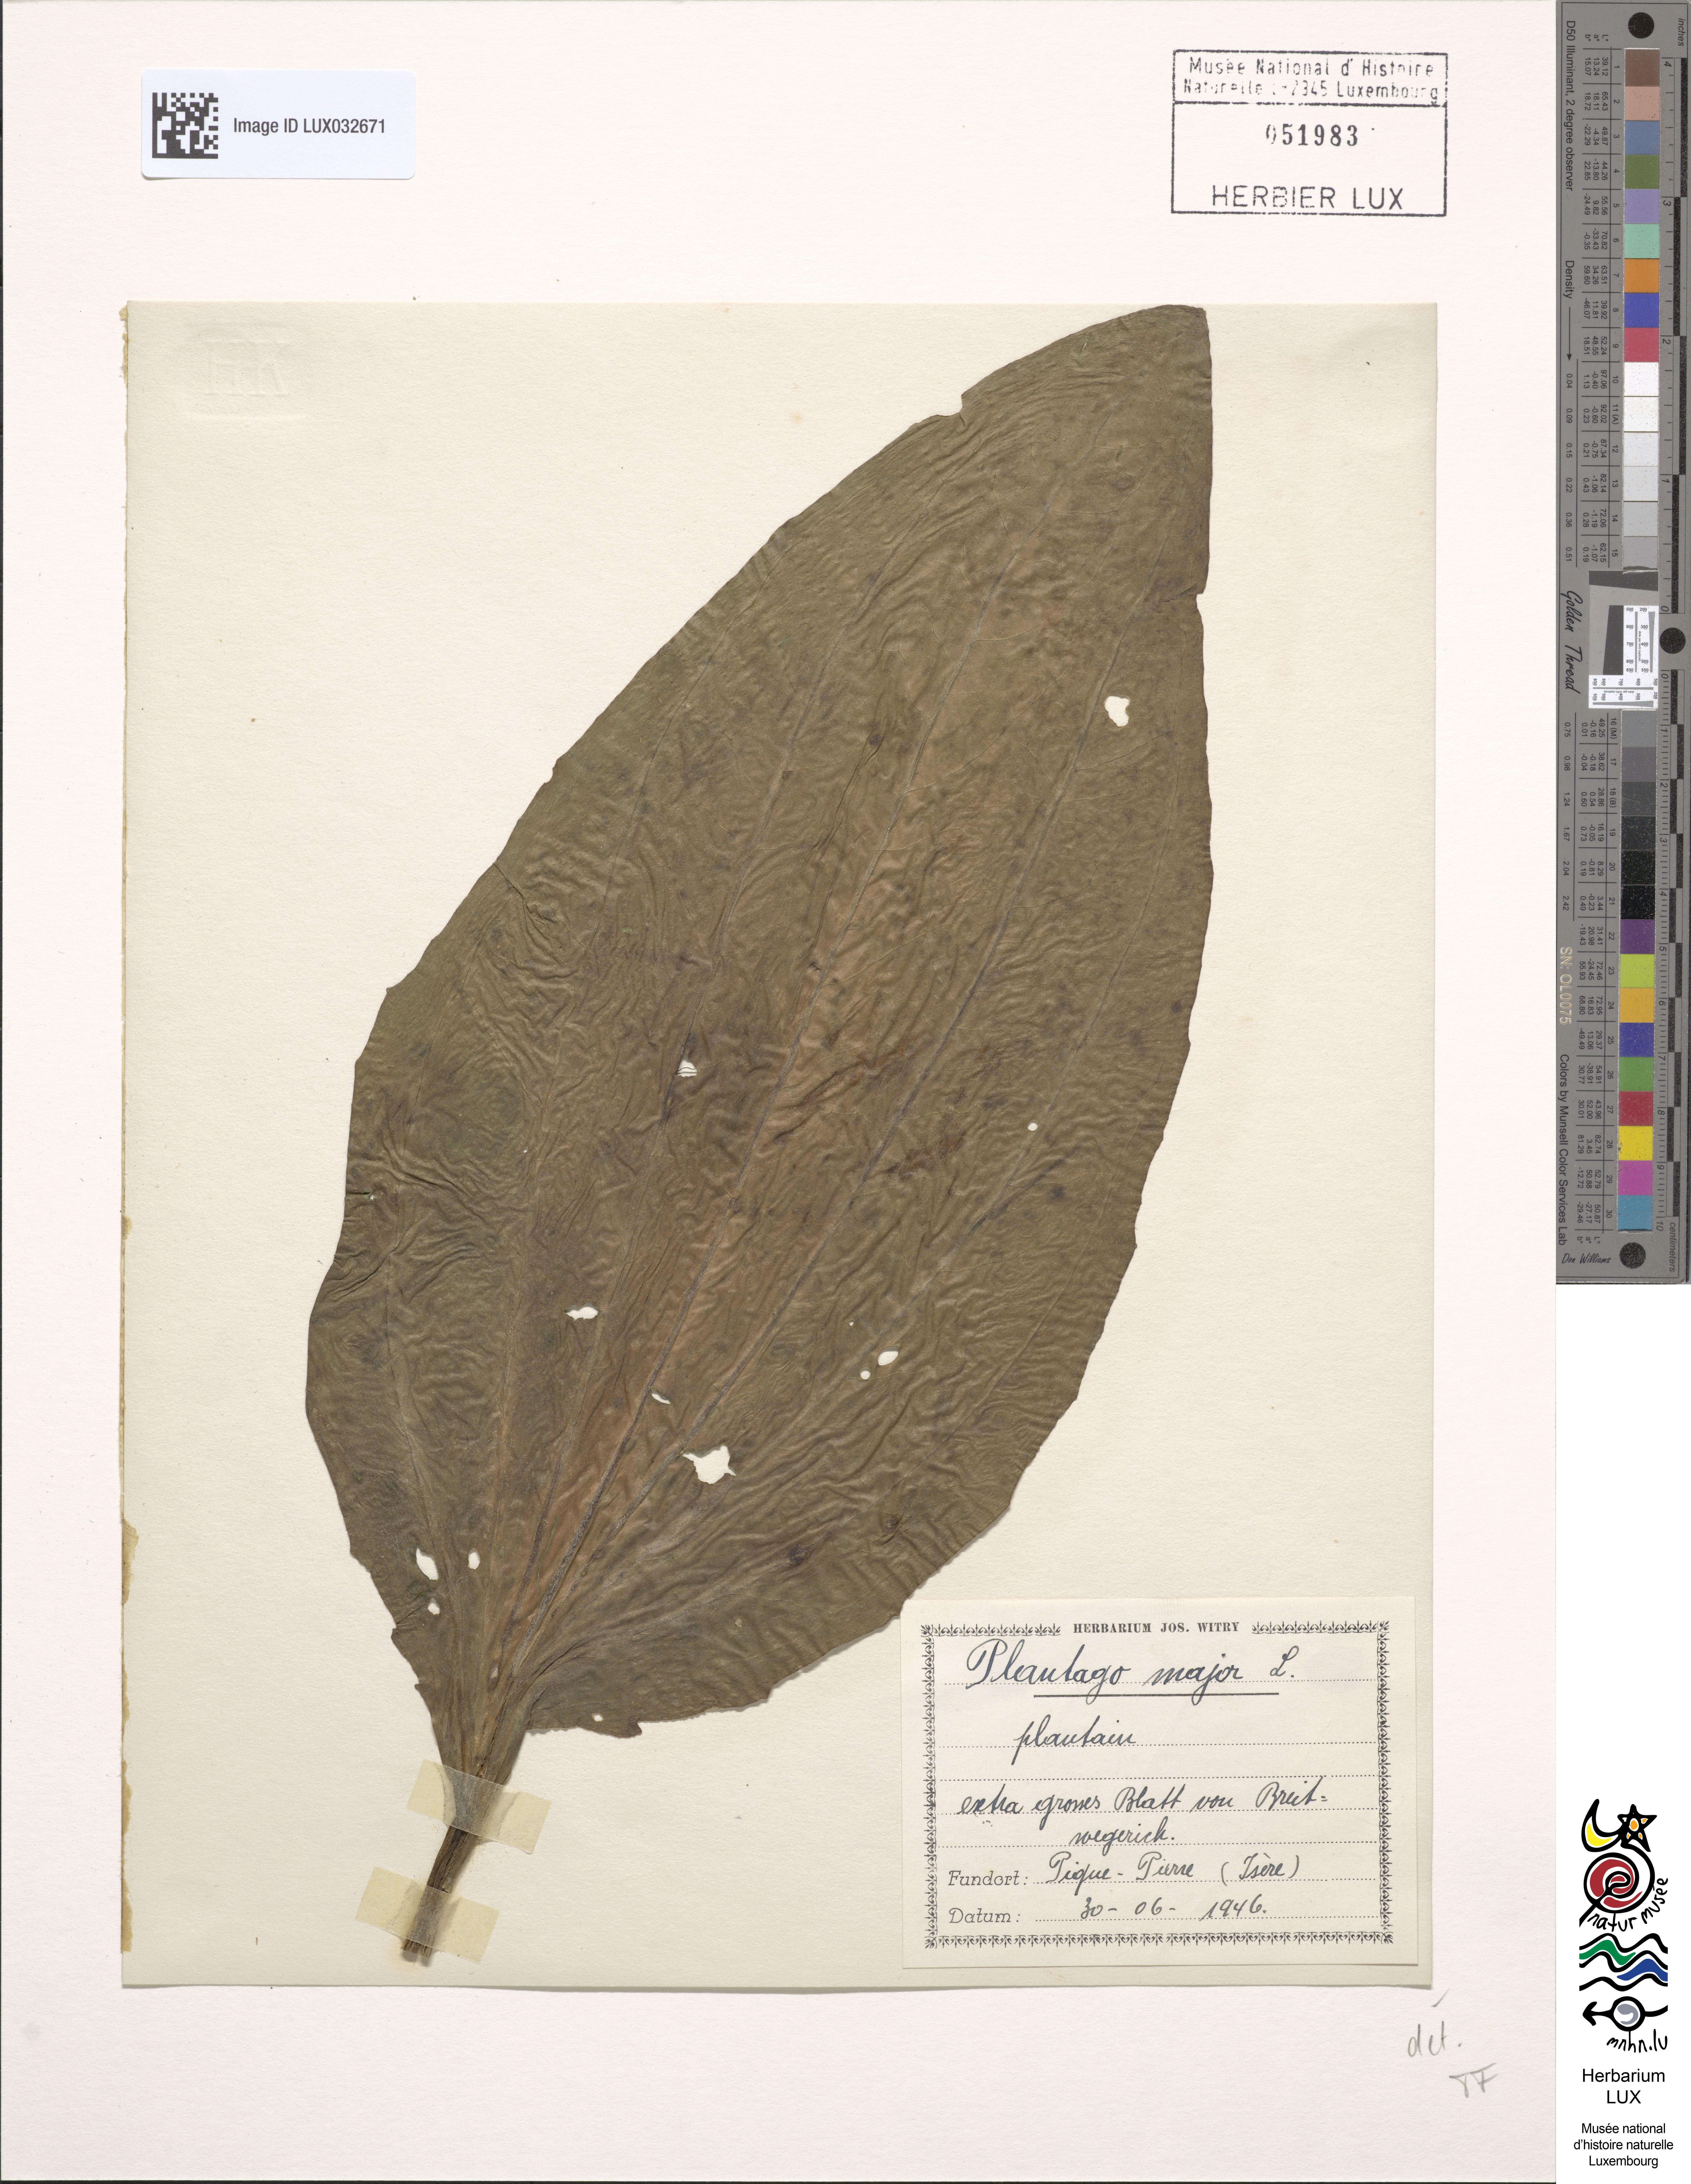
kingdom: Plantae
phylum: Tracheophyta
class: Magnoliopsida
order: Lamiales
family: Plantaginaceae
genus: Plantago
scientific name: Plantago major
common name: Common plantain
